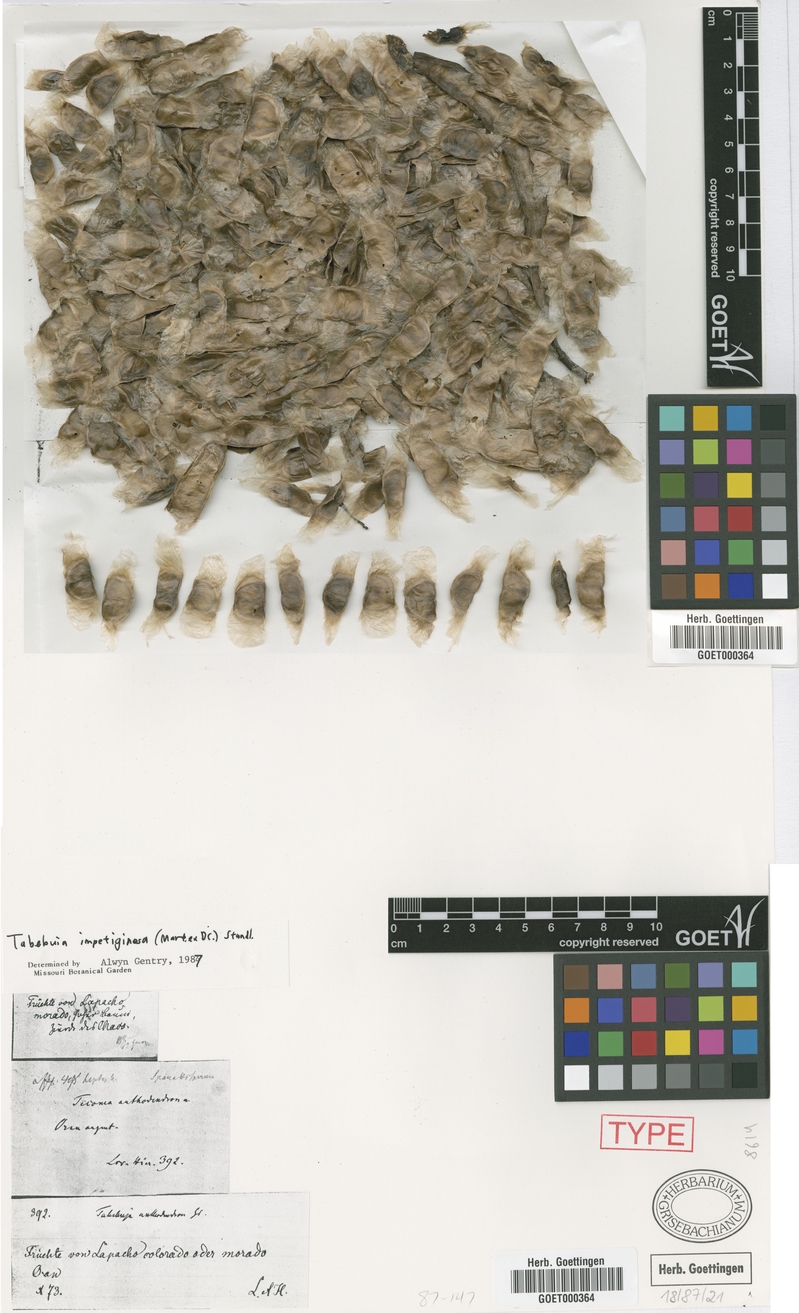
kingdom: Plantae
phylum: Tracheophyta
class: Magnoliopsida
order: Lamiales
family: Bignoniaceae
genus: Handroanthus
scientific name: Handroanthus impetiginosum
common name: Pink trumpet tree
